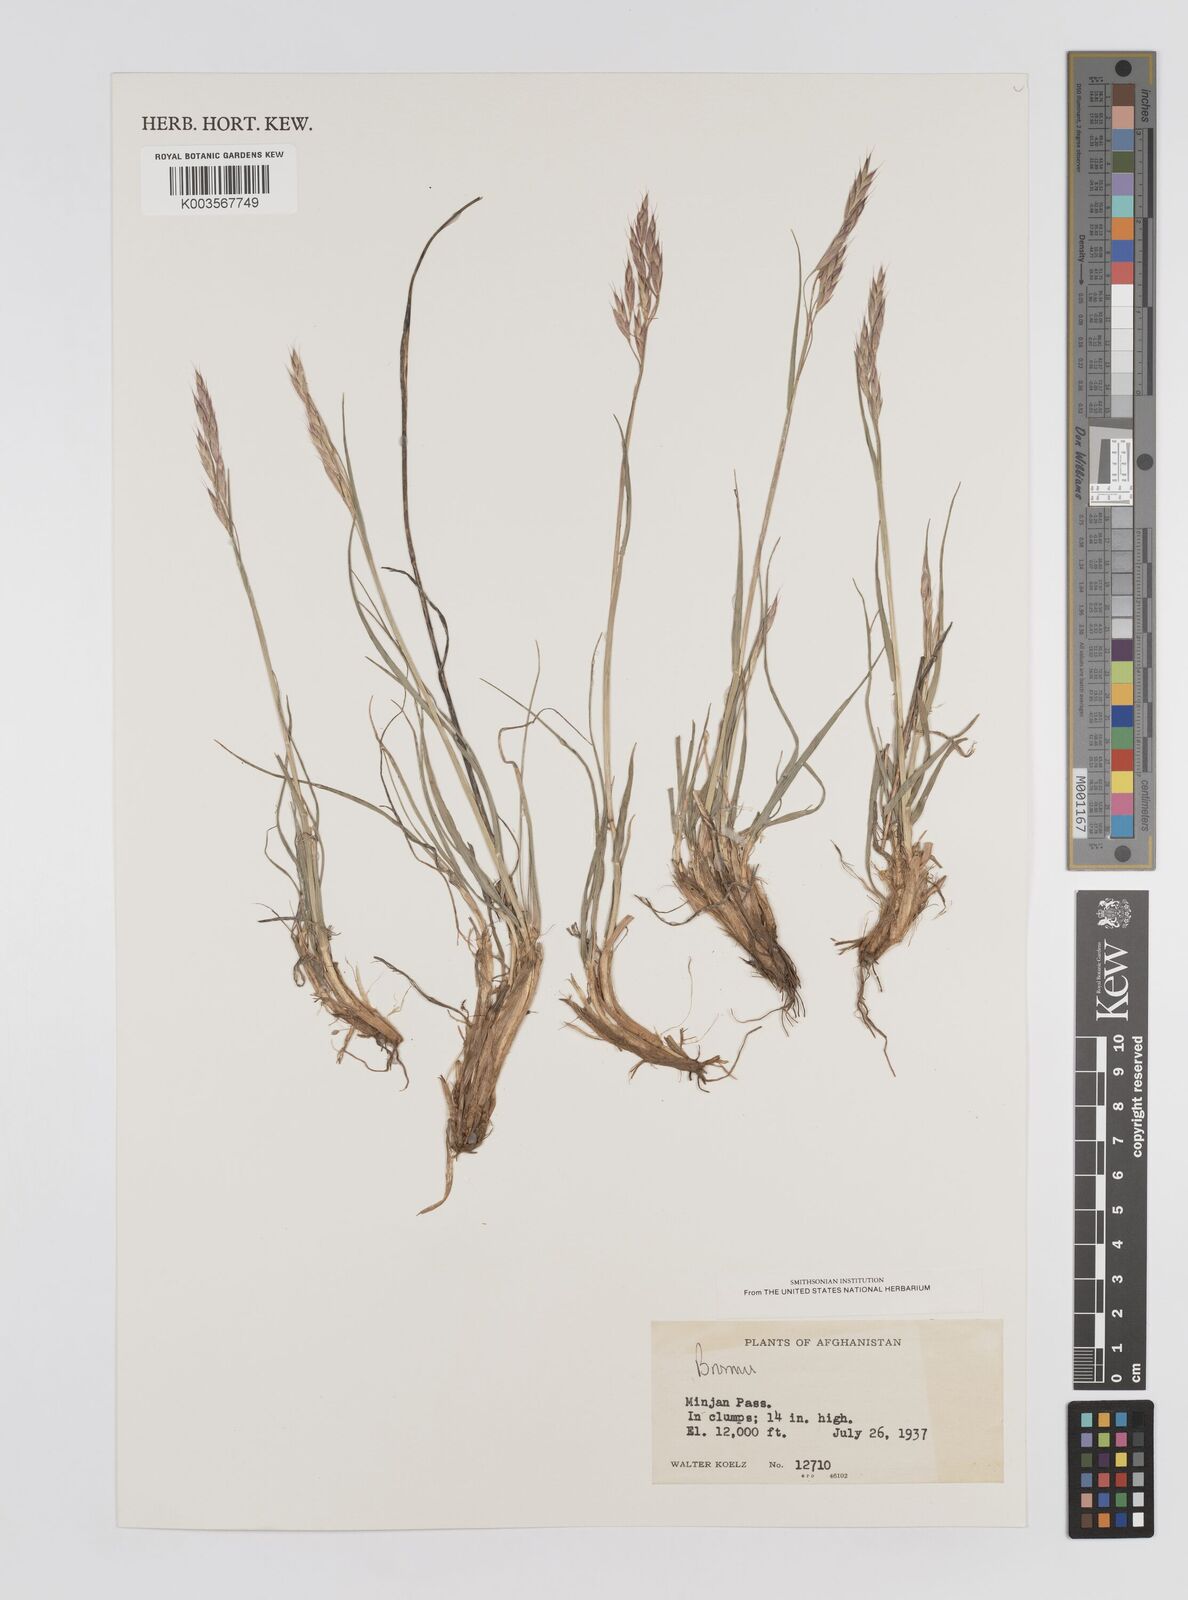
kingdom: Plantae
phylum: Tracheophyta
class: Liliopsida
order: Poales
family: Poaceae
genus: Bromus
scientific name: Bromus
